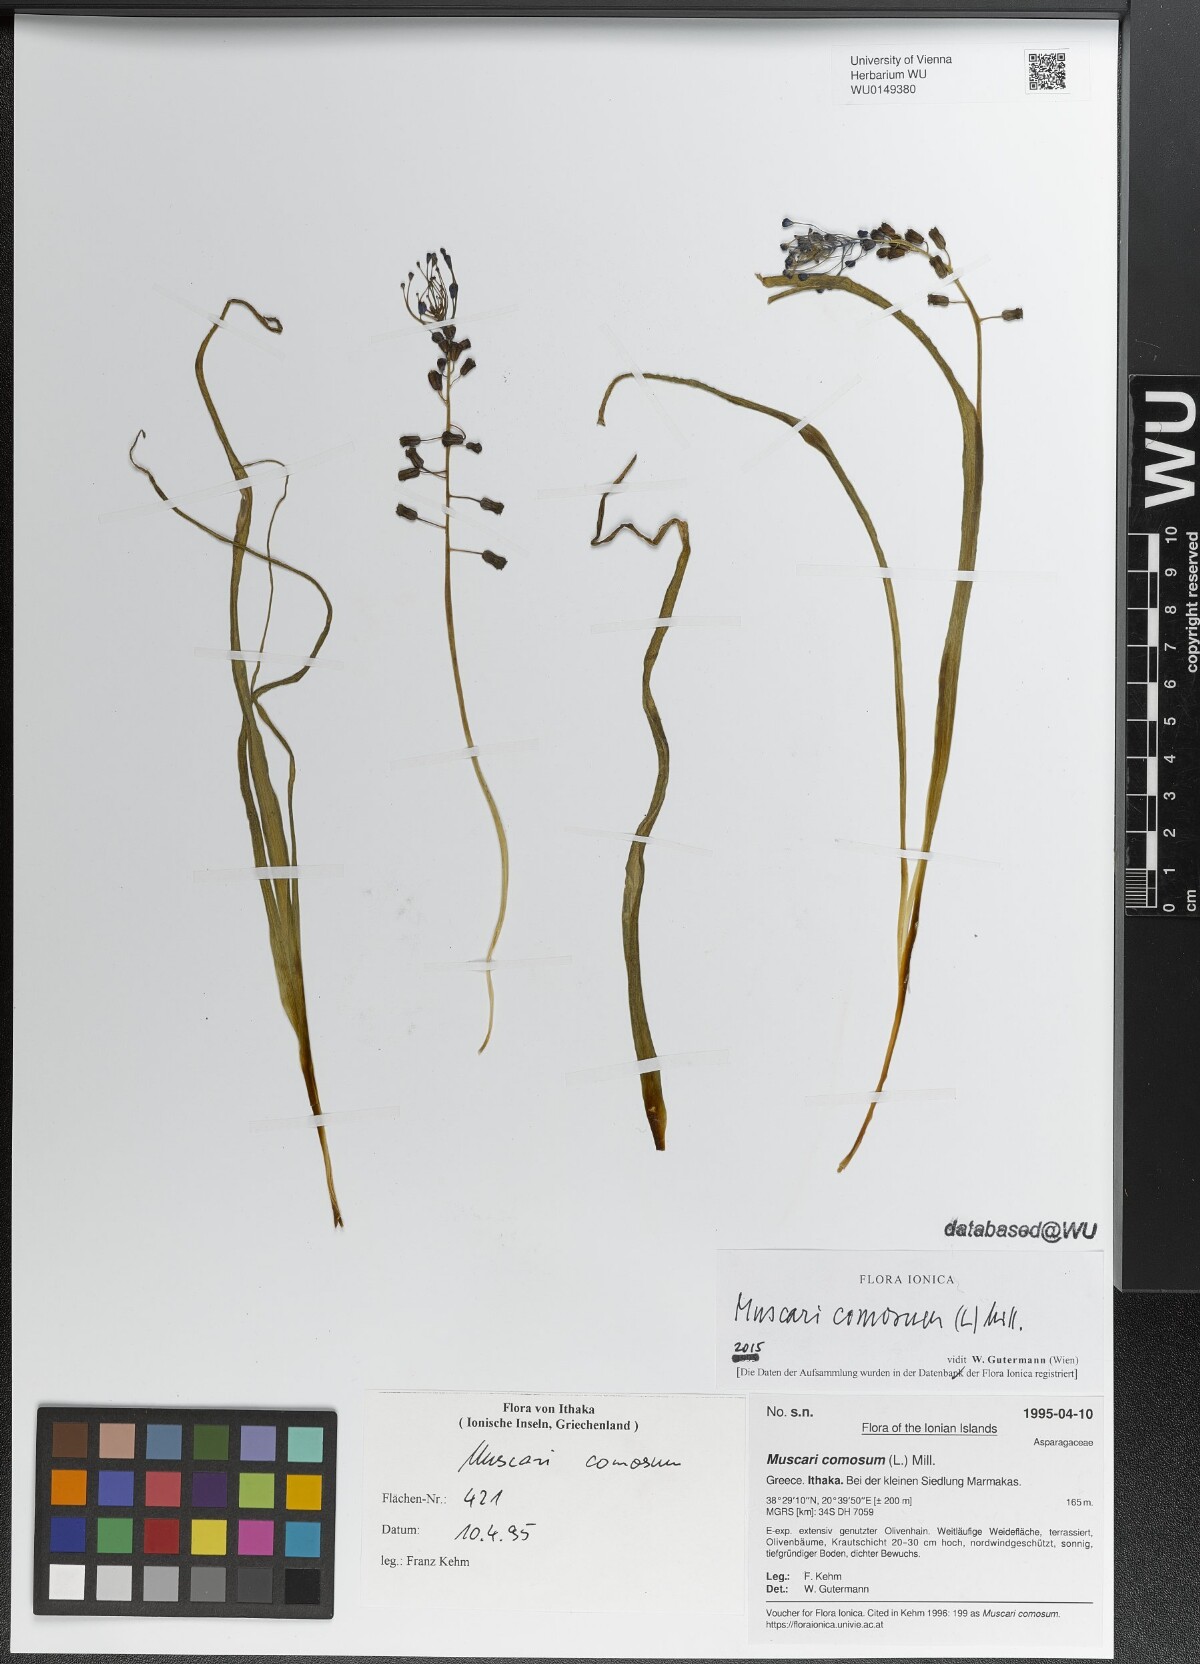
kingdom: Plantae
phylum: Tracheophyta
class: Liliopsida
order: Asparagales
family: Asparagaceae
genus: Muscari
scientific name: Muscari comosum
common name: Tassel hyacinth
